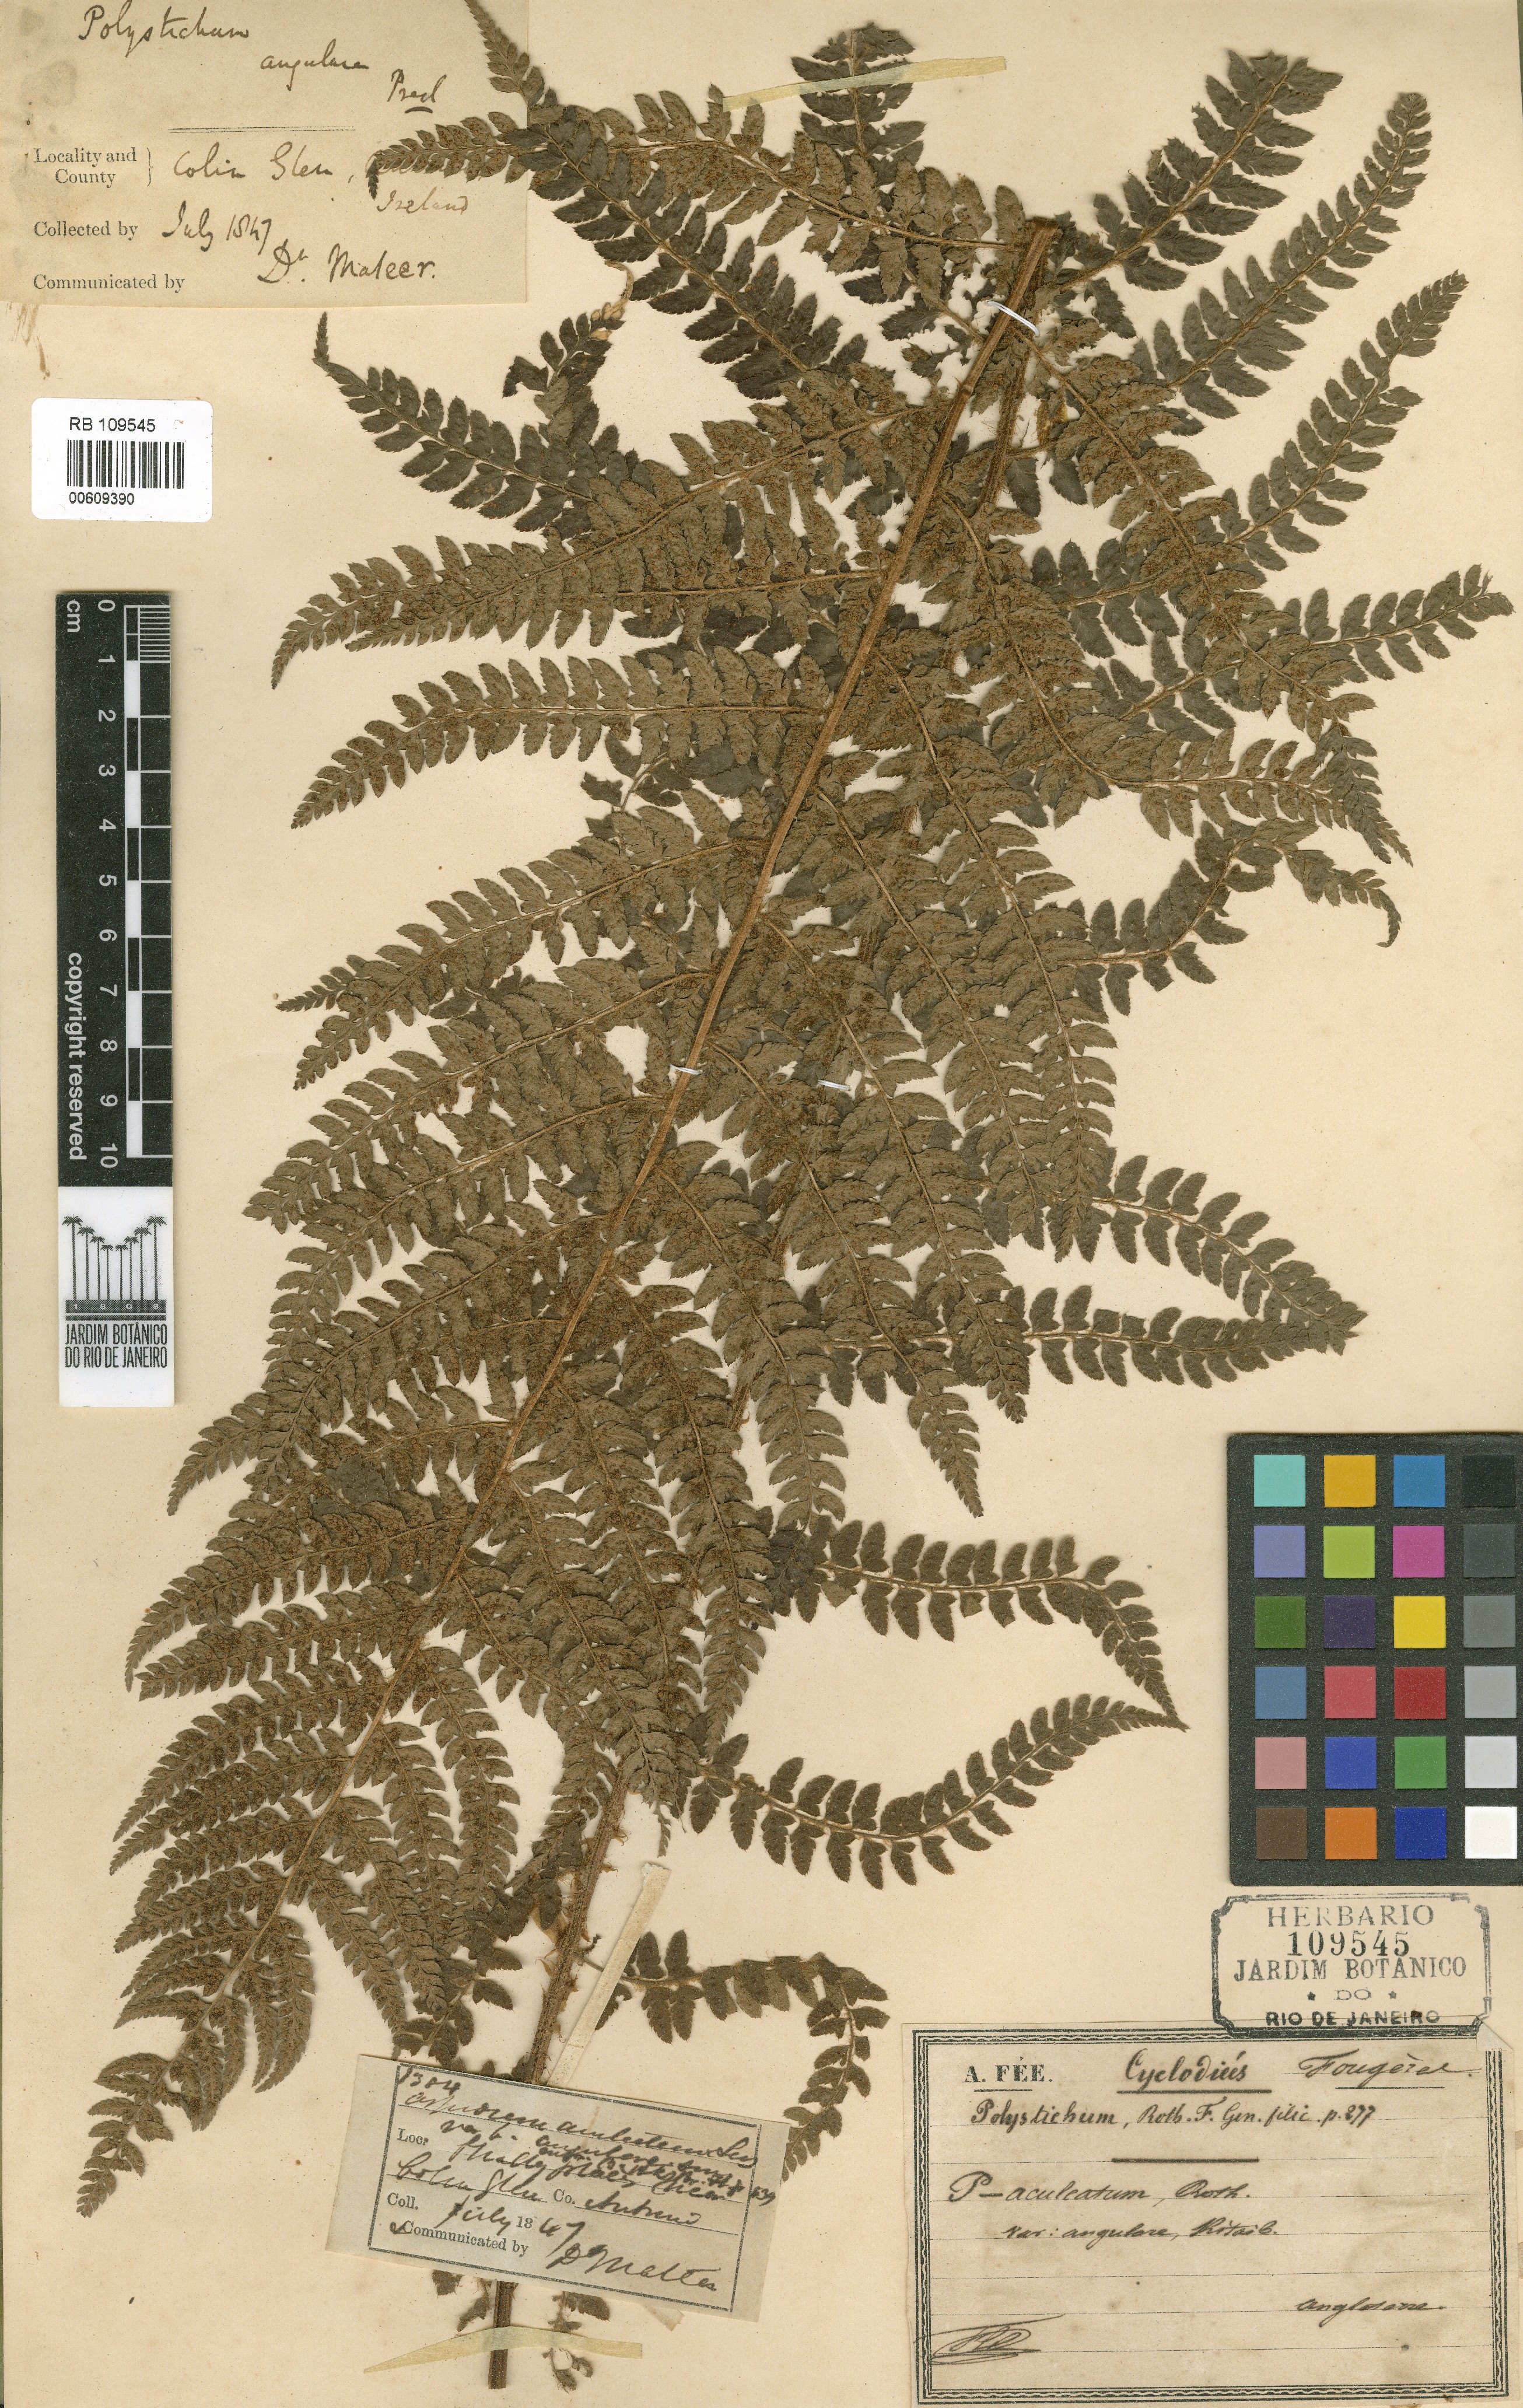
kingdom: Plantae
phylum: Tracheophyta
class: Polypodiopsida
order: Polypodiales
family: Dryopteridaceae
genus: Polystichum
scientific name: Polystichum aculeatum
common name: Hard shield-fern
